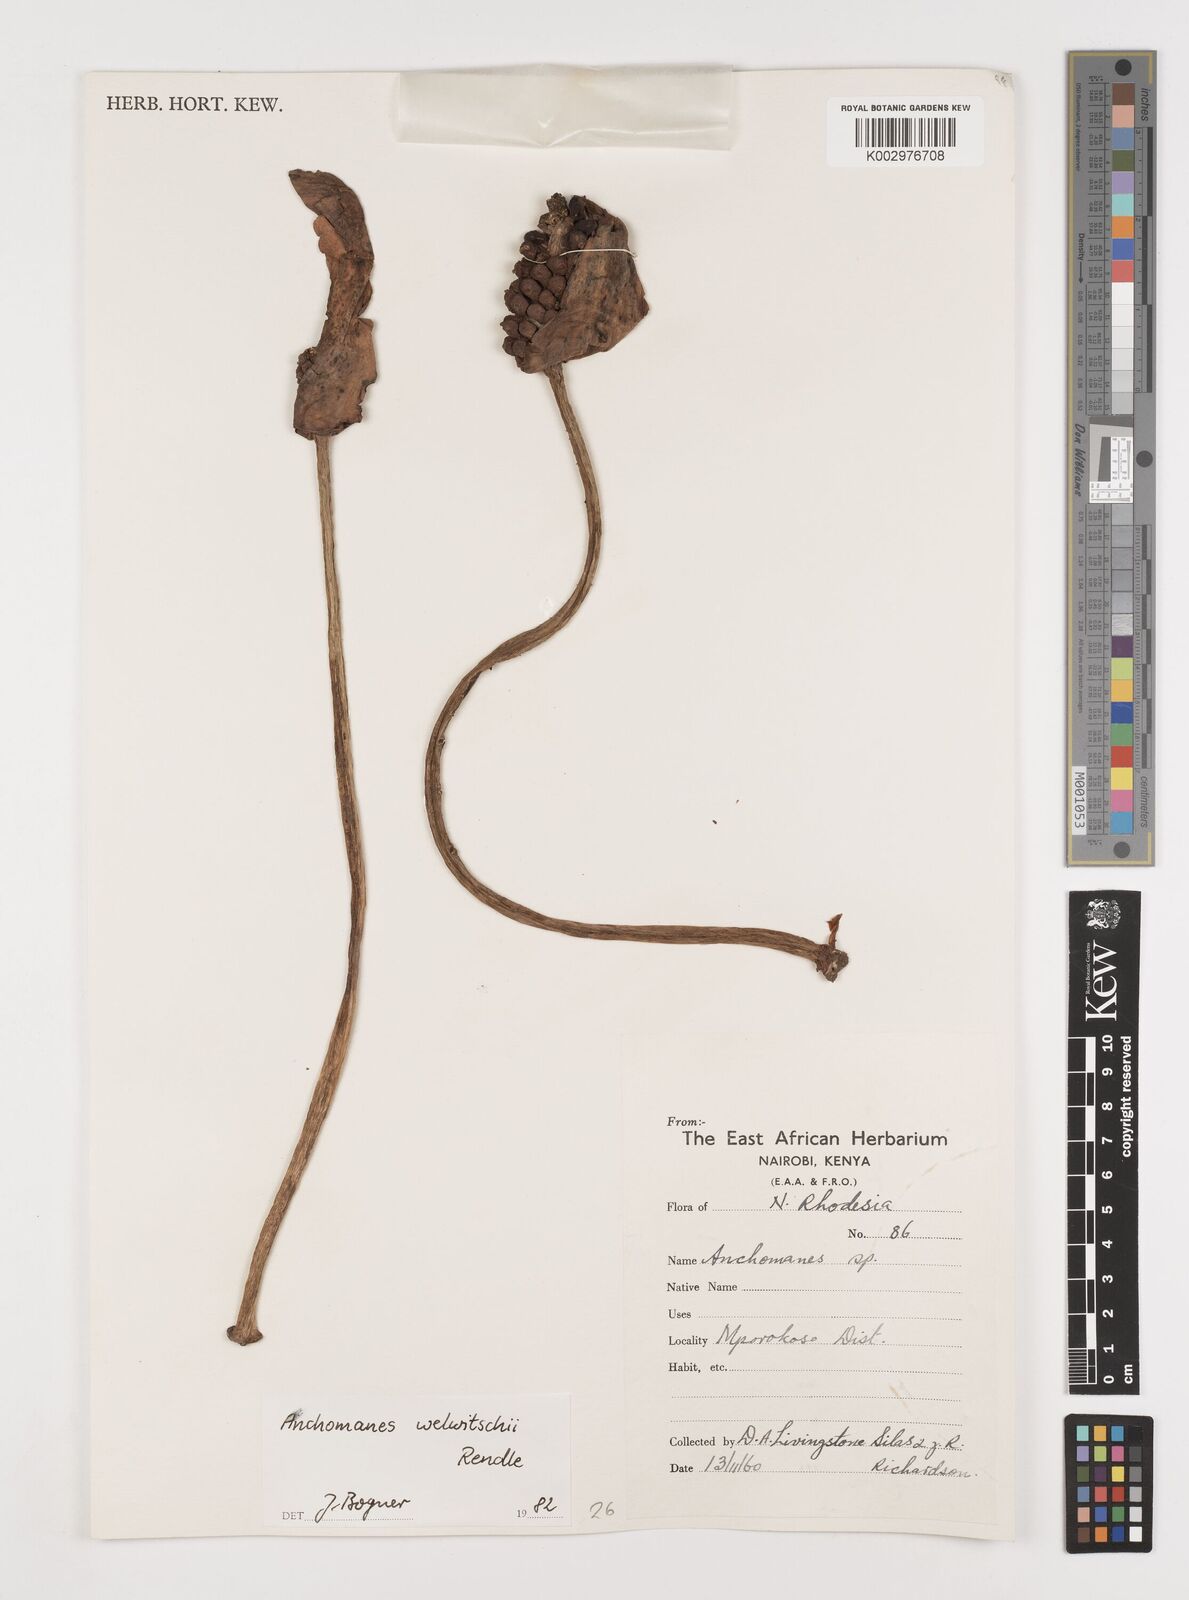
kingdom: Plantae
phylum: Tracheophyta
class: Liliopsida
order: Alismatales
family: Araceae
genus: Anchomanes
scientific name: Anchomanes difformis
